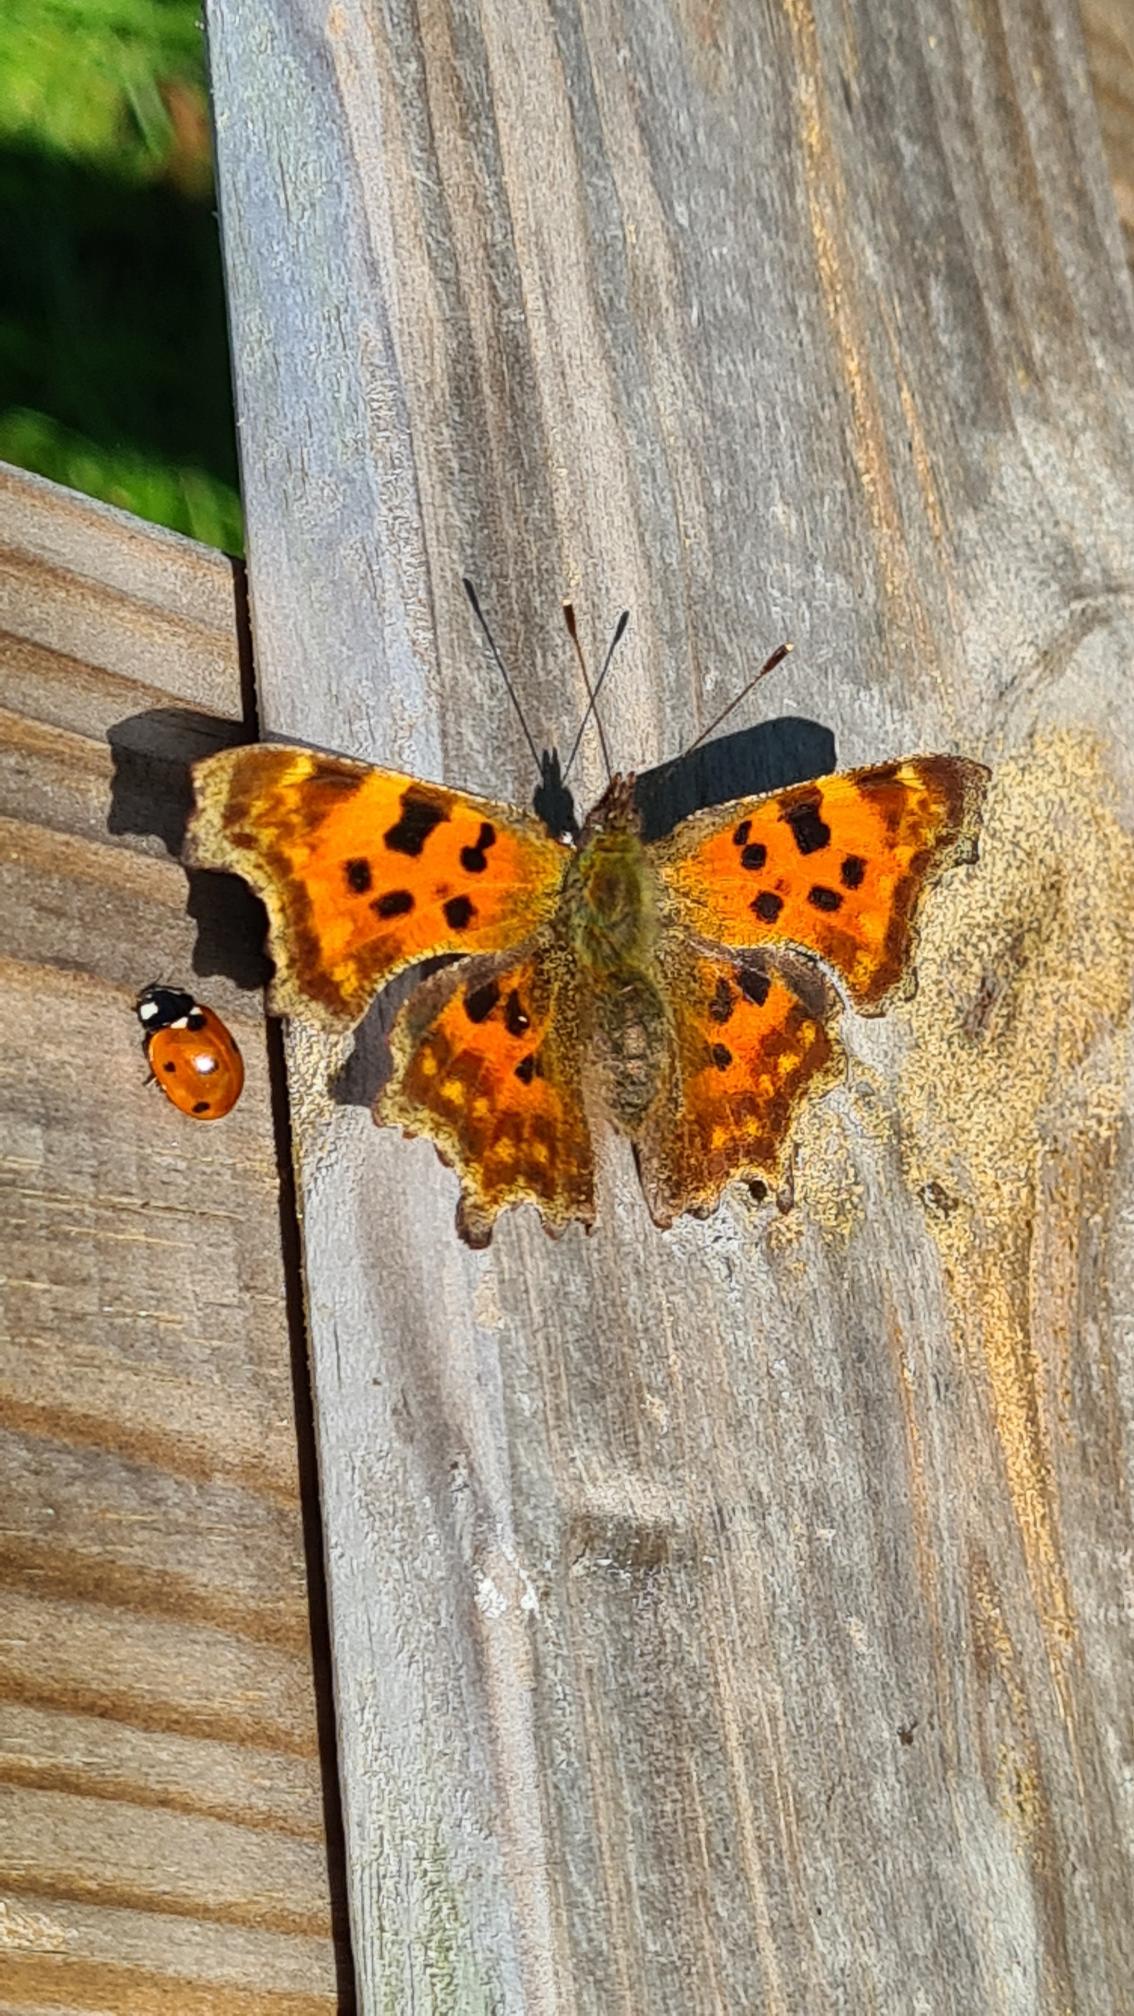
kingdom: Animalia
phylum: Arthropoda
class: Insecta
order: Lepidoptera
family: Nymphalidae
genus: Polygonia
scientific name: Polygonia c-album
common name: Det hvide C
